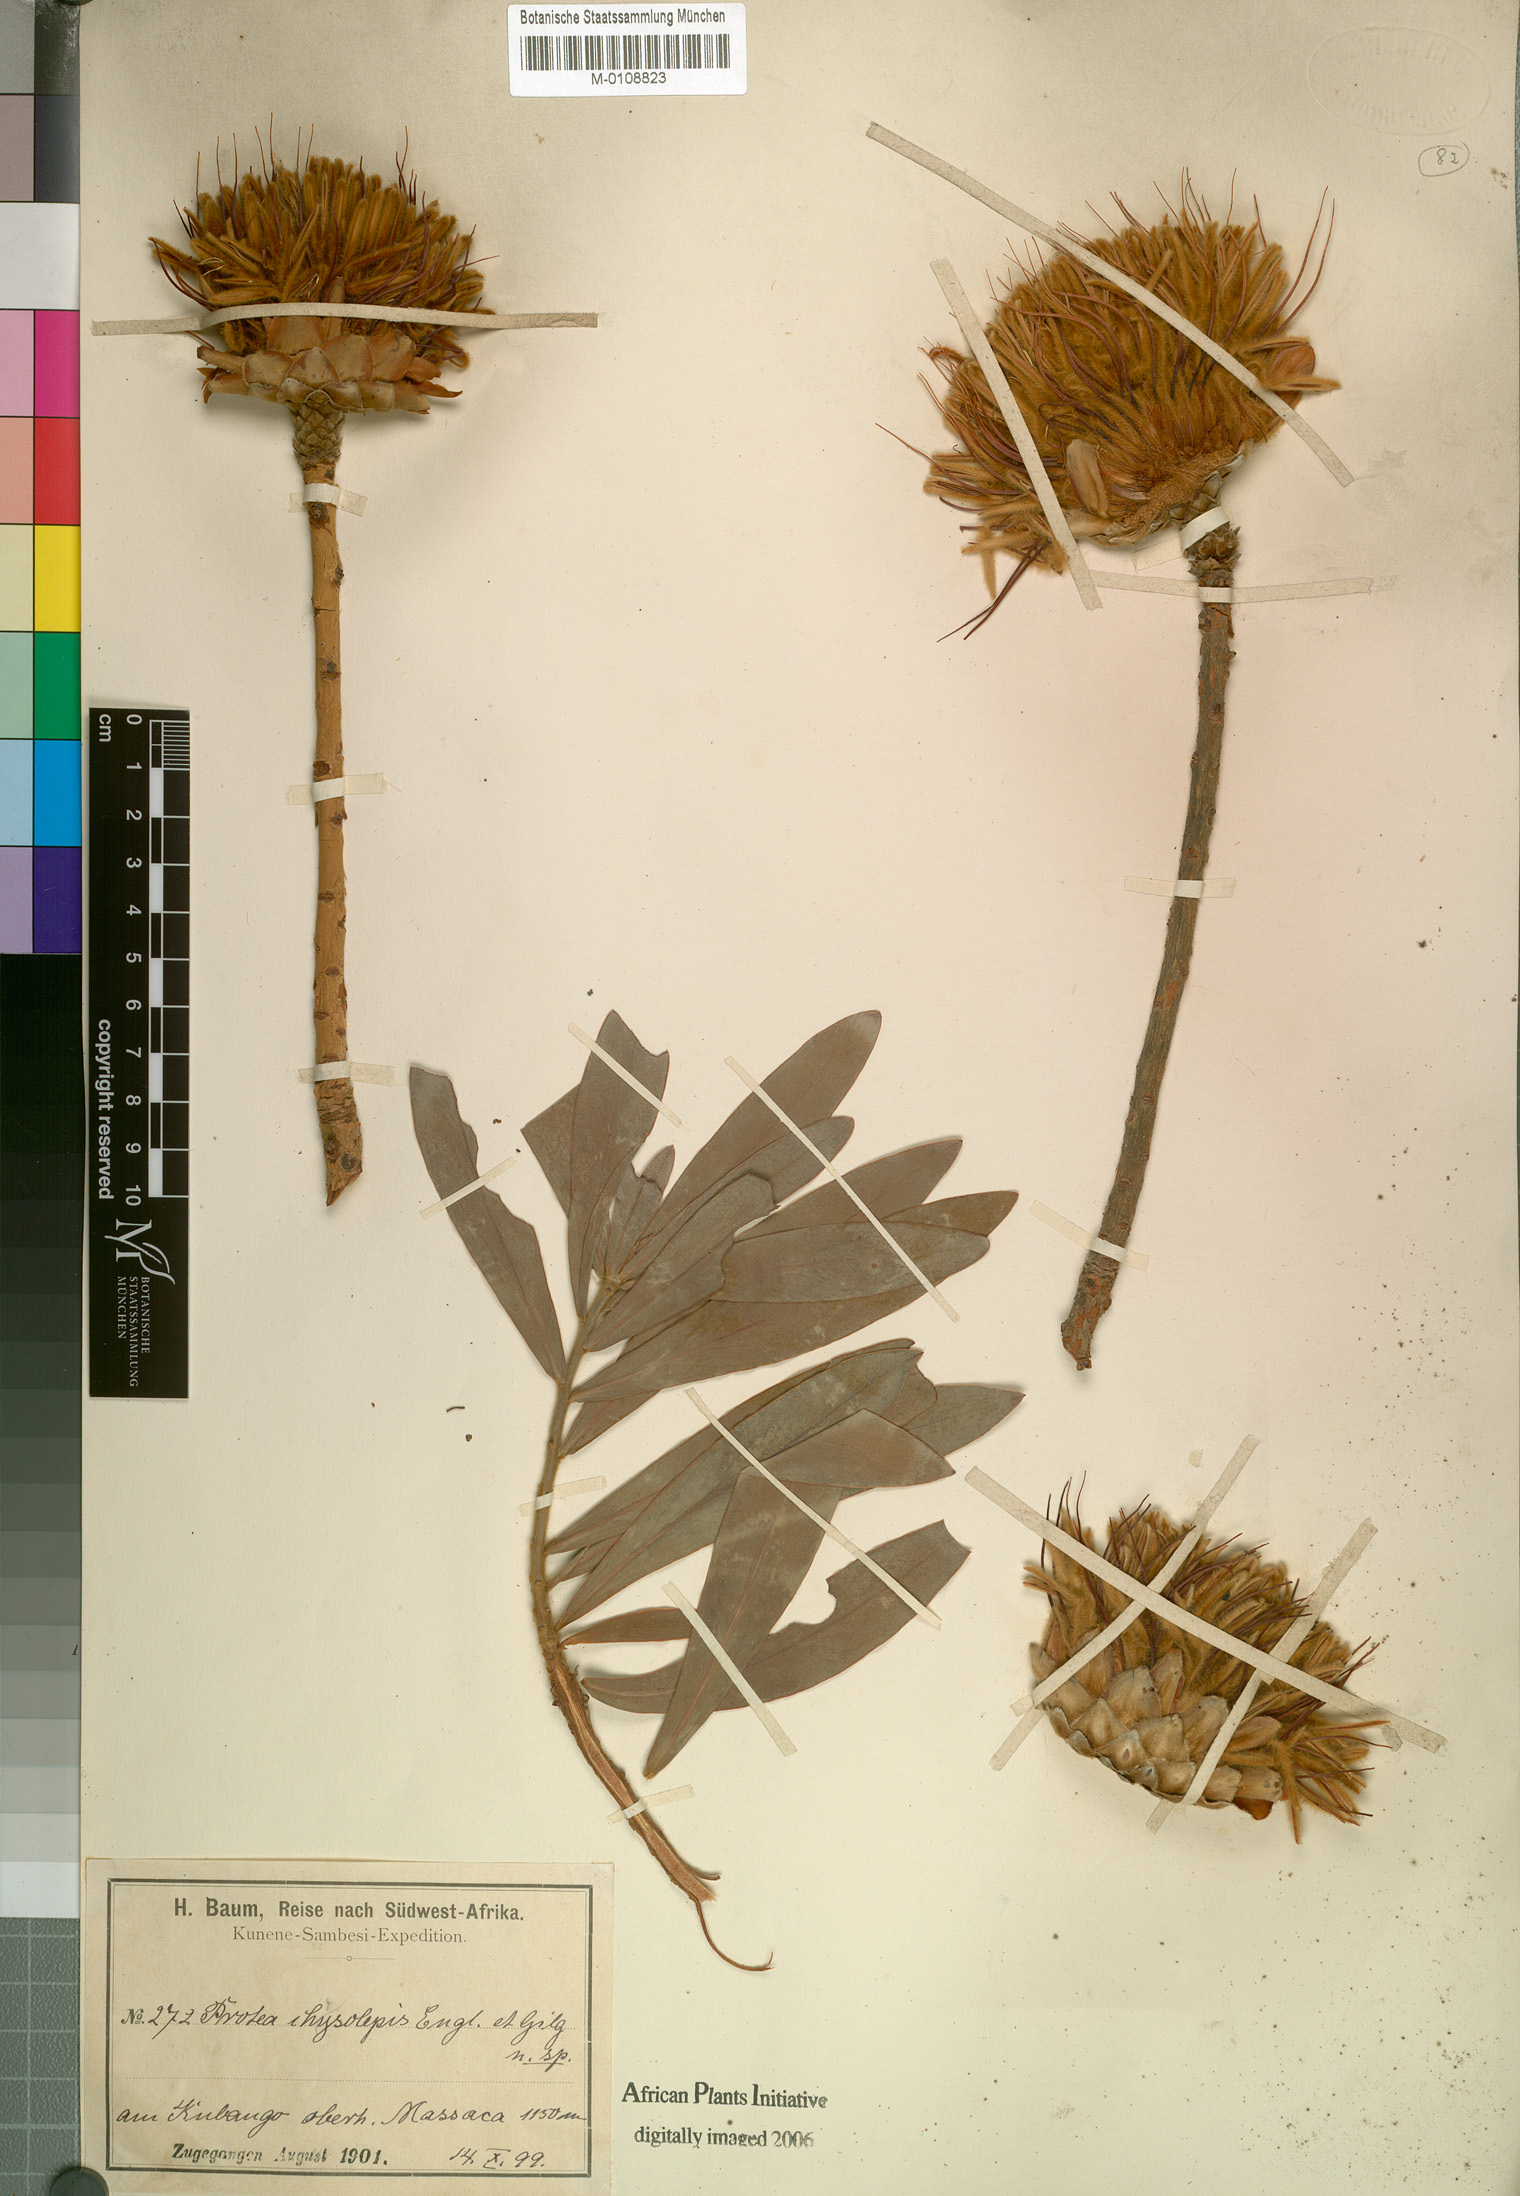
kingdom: Plantae
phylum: Tracheophyta
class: Magnoliopsida
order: Proteales
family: Proteaceae
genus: Protea
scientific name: Protea gaguedi
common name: African protea
